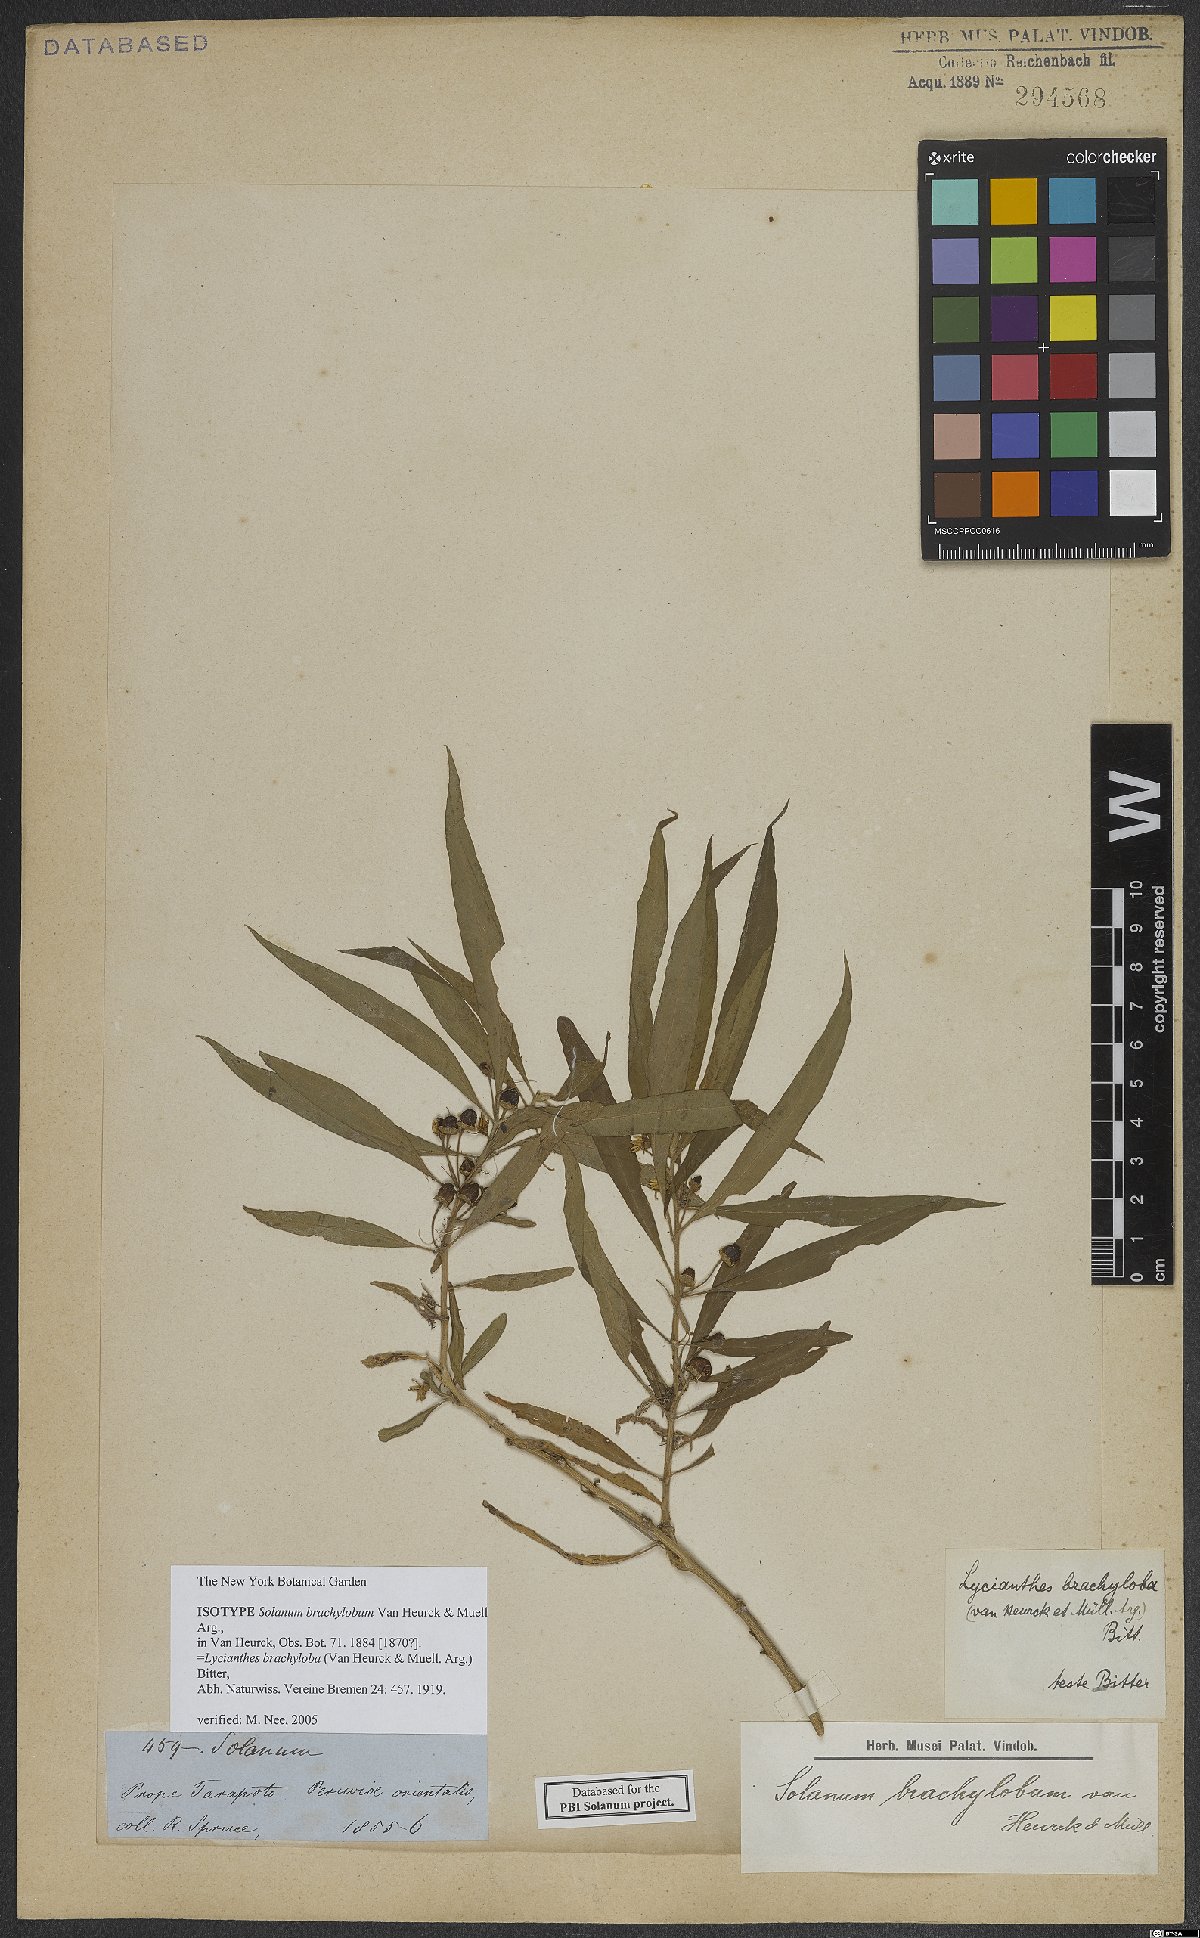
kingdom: Plantae
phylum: Tracheophyta
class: Magnoliopsida
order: Solanales
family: Solanaceae
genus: Lycianthes
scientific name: Lycianthes brachyloba
